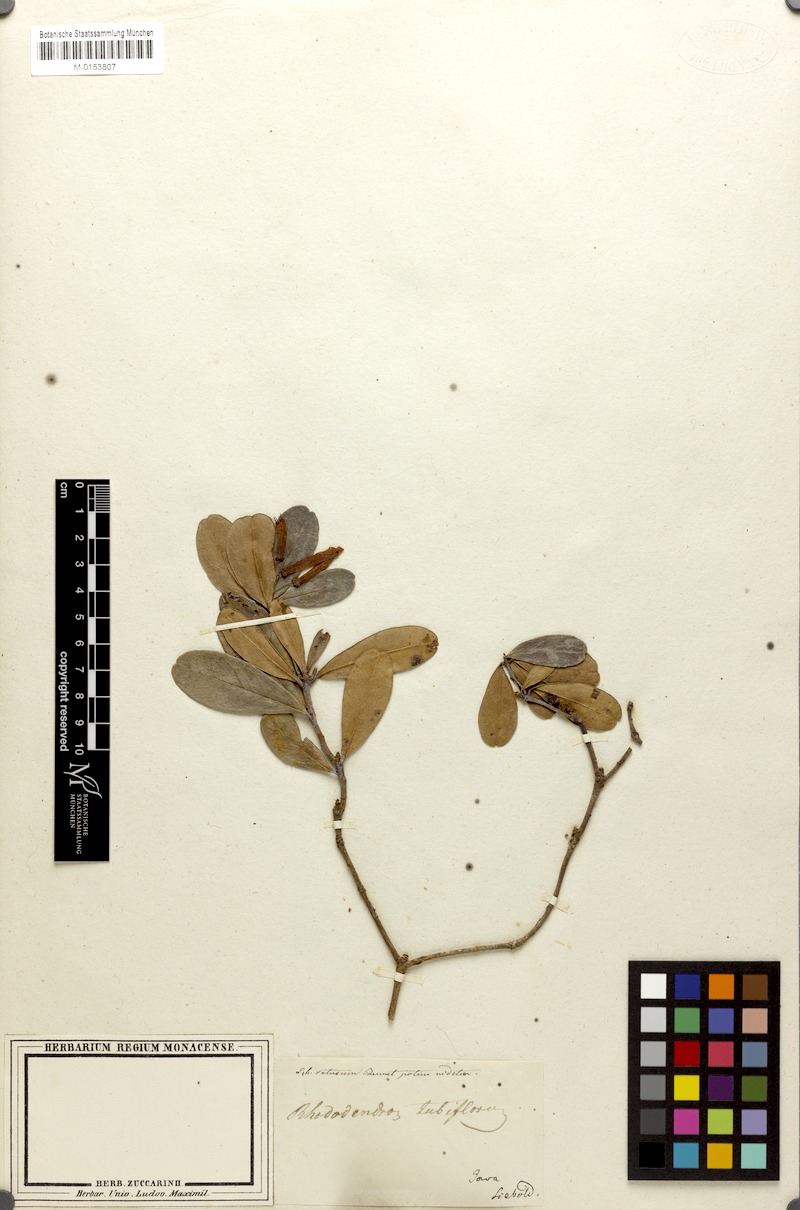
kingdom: Plantae
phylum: Tracheophyta
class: Magnoliopsida
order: Ericales
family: Ericaceae
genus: Rhododendron
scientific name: Rhododendron retusum
